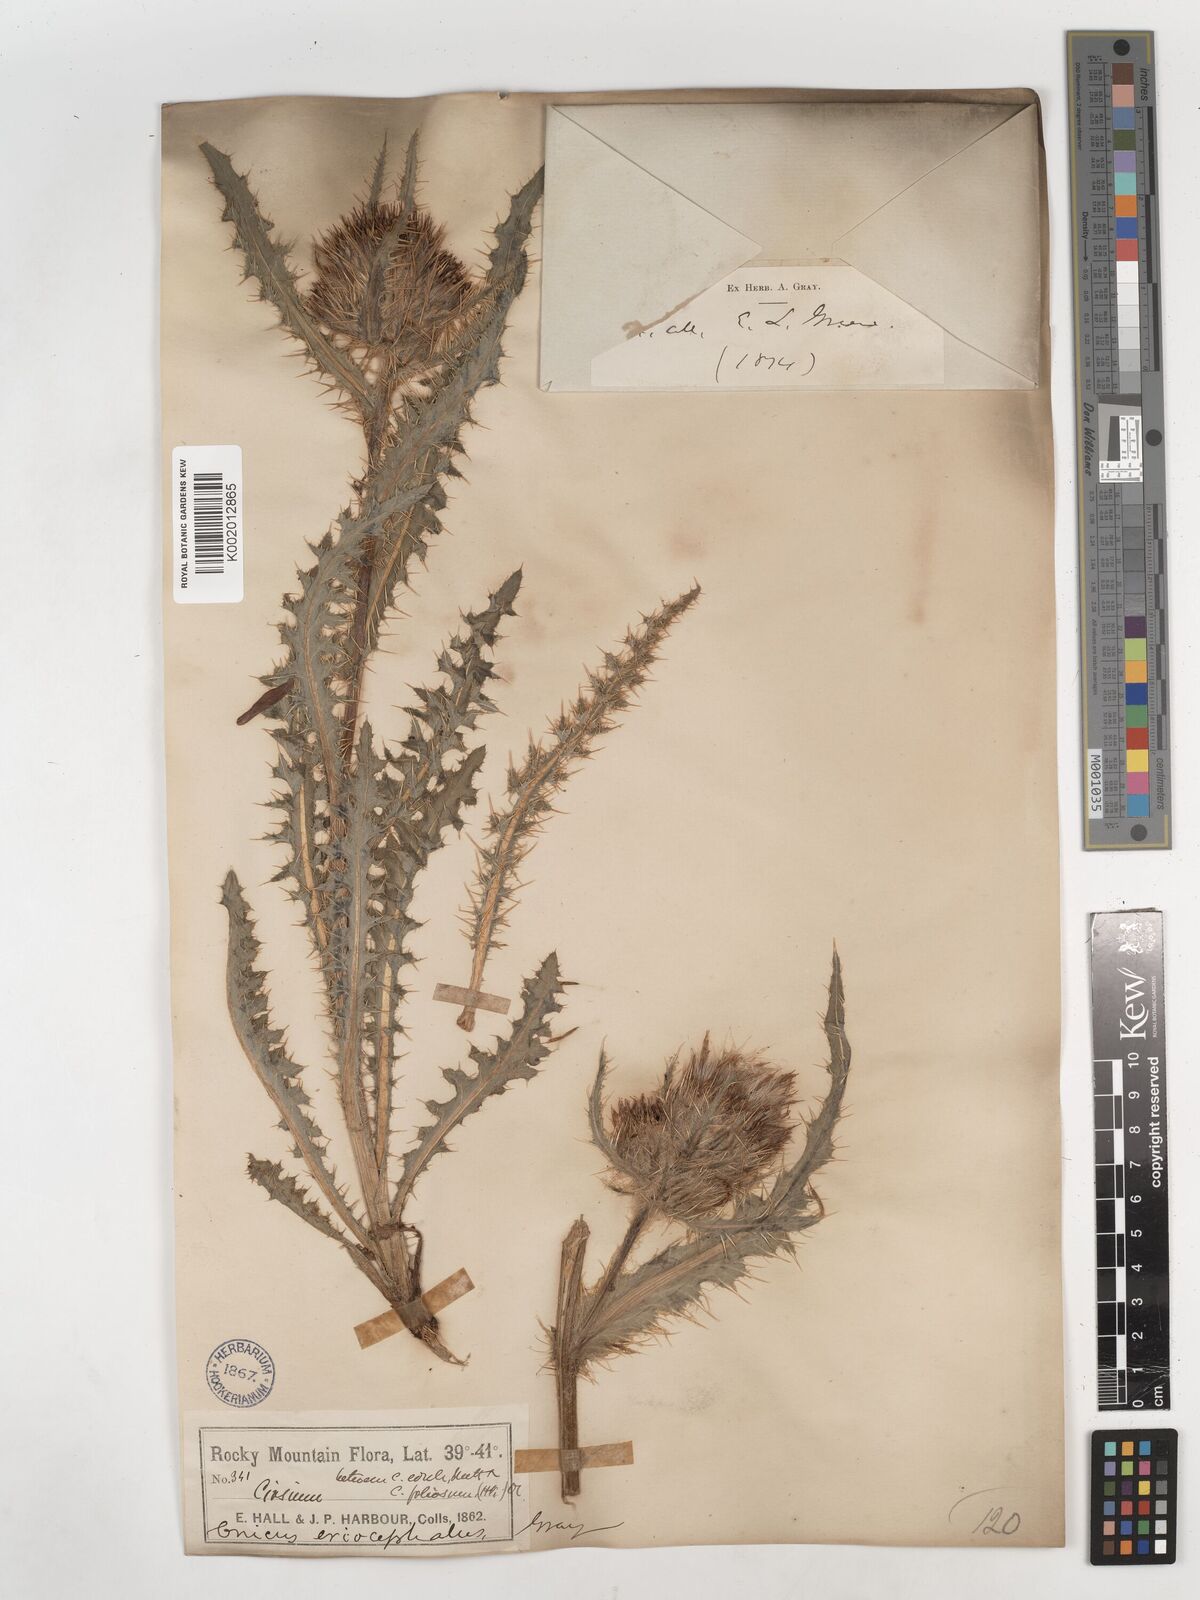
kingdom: Plantae
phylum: Tracheophyta
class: Magnoliopsida
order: Asterales
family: Asteraceae
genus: Cirsium
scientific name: Cirsium scopulorum
